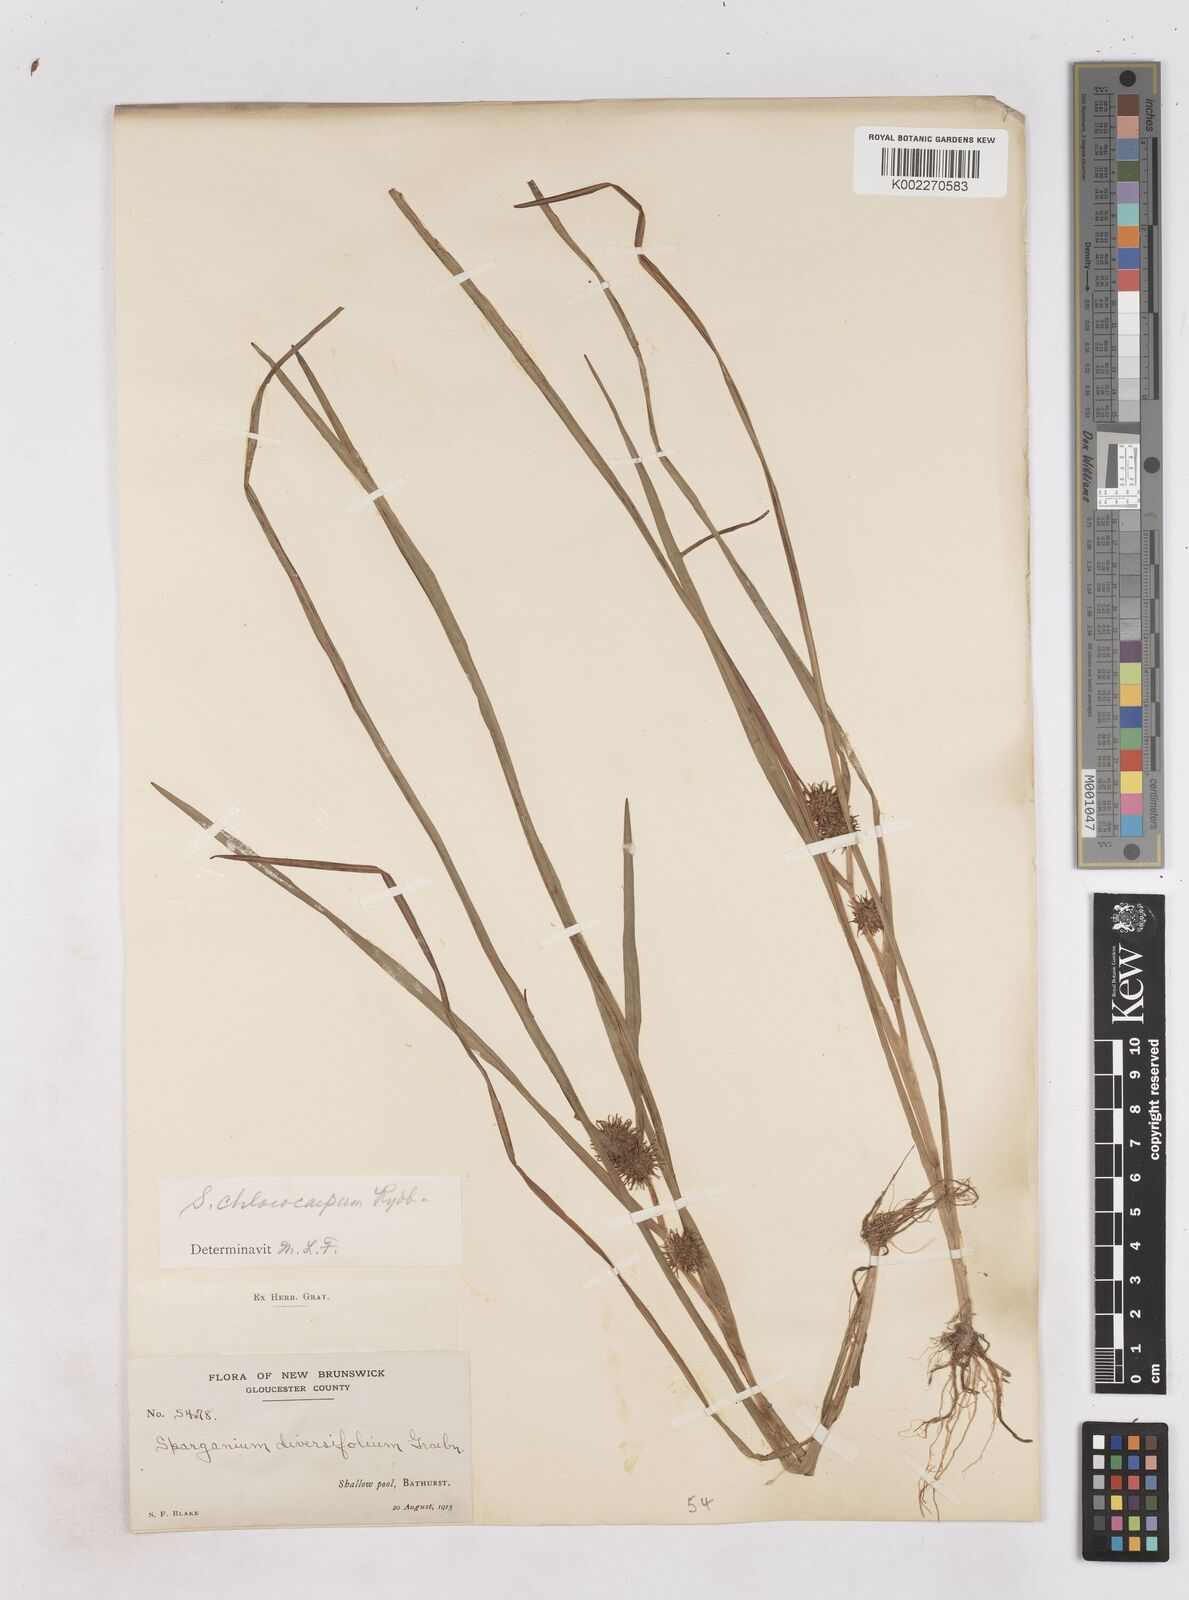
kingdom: Plantae
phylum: Tracheophyta
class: Liliopsida
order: Poales
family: Typhaceae
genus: Sparganium
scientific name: Sparganium emersum
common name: Unbranched bur-reed
